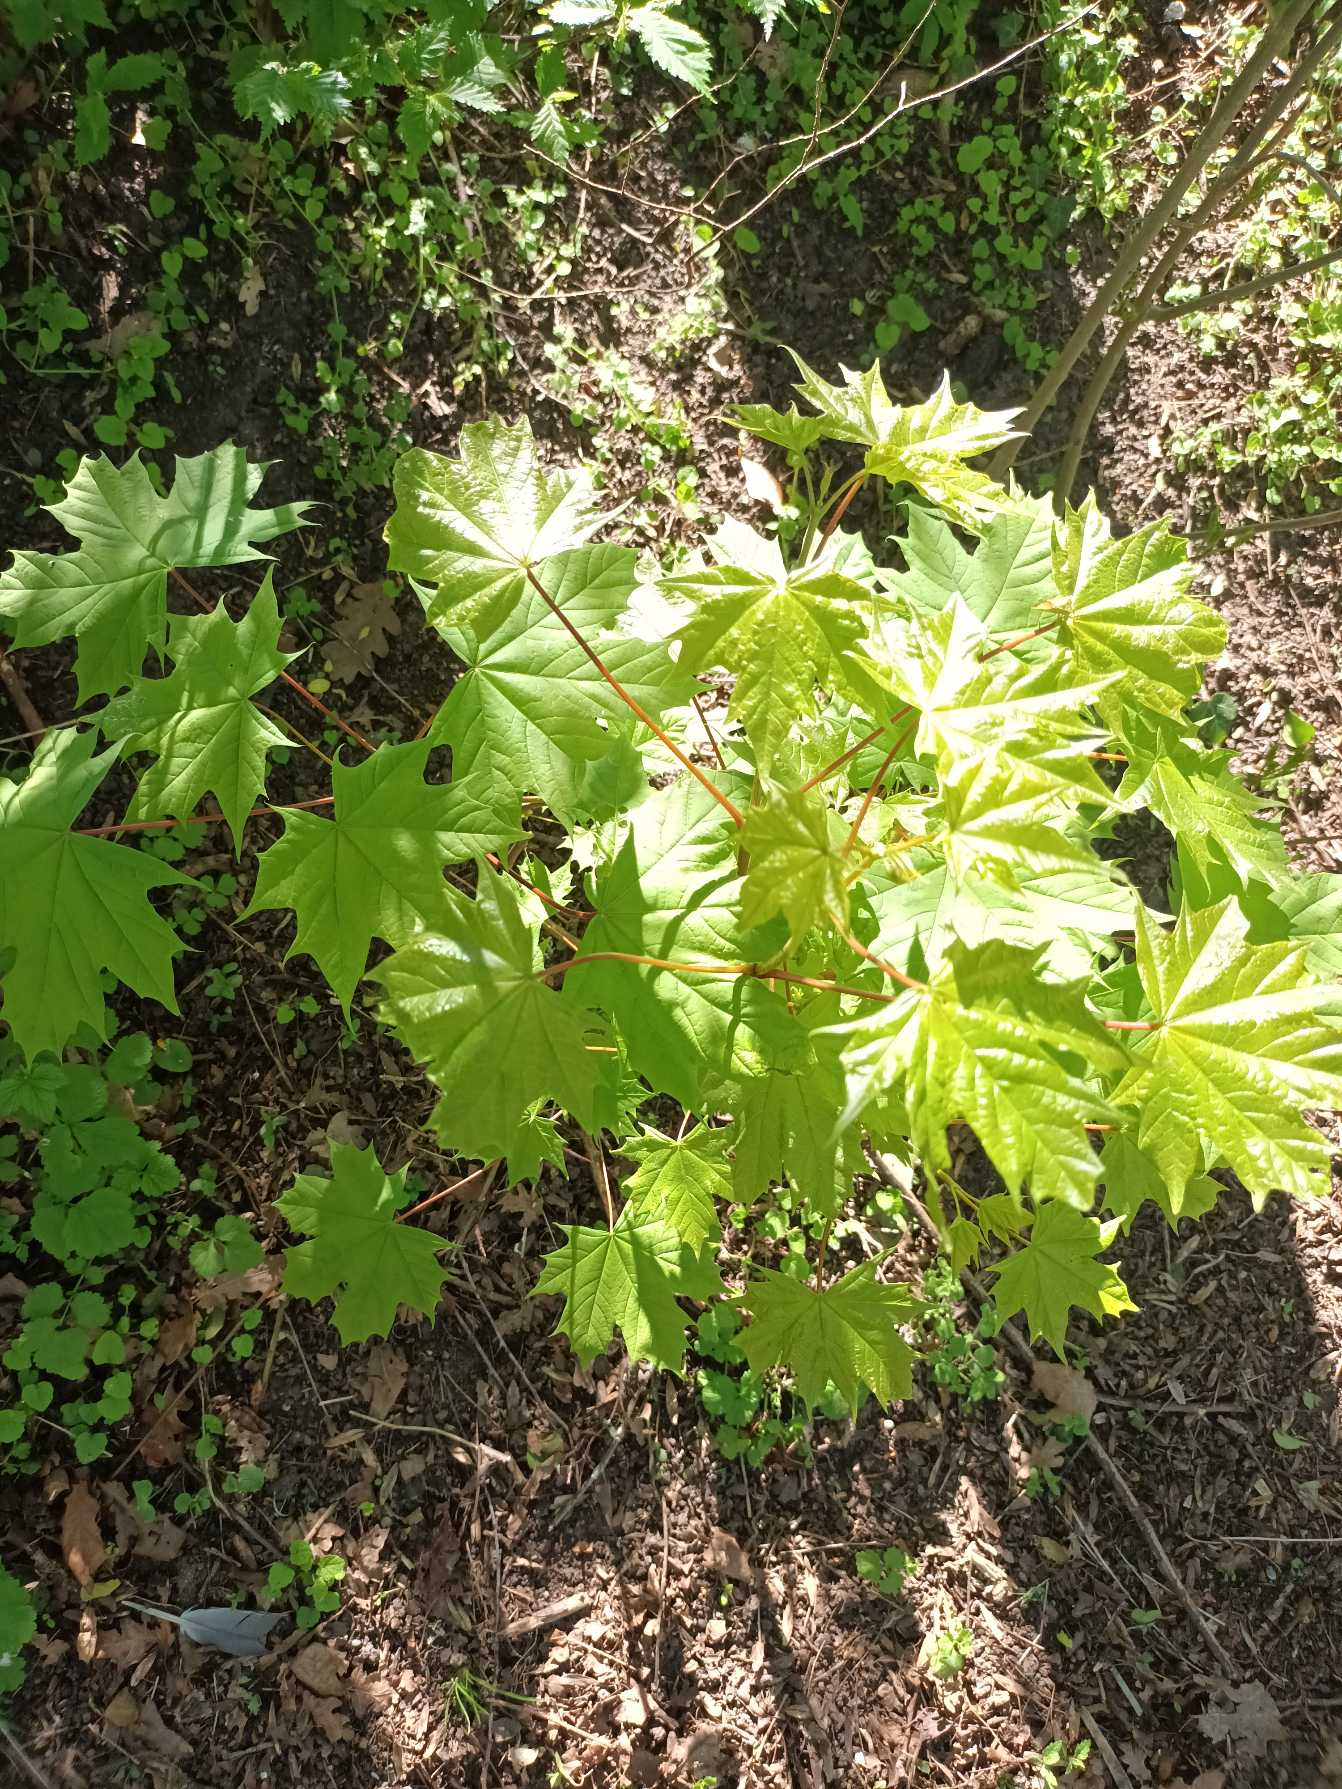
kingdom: Plantae
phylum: Tracheophyta
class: Magnoliopsida
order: Sapindales
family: Sapindaceae
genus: Acer
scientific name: Acer platanoides
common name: Spids-løn
